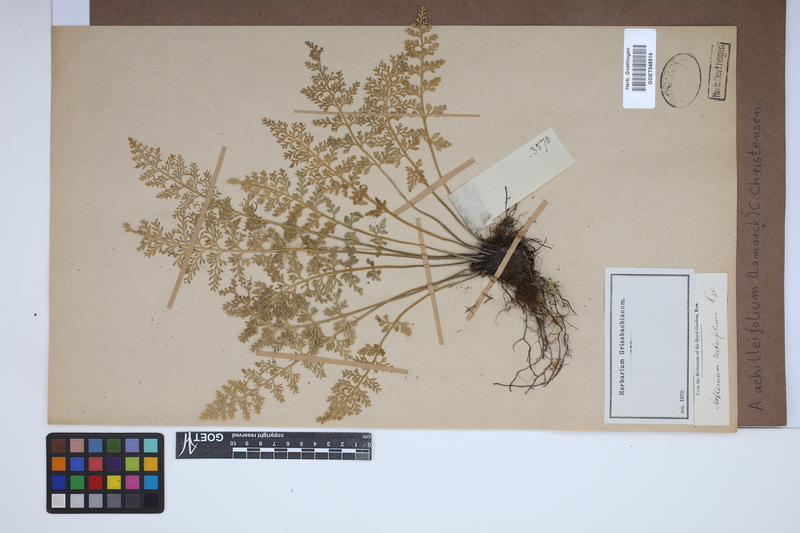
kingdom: Plantae
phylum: Tracheophyta
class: Polypodiopsida
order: Polypodiales
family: Aspleniaceae
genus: Asplenium
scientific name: Asplenium rutifolium
